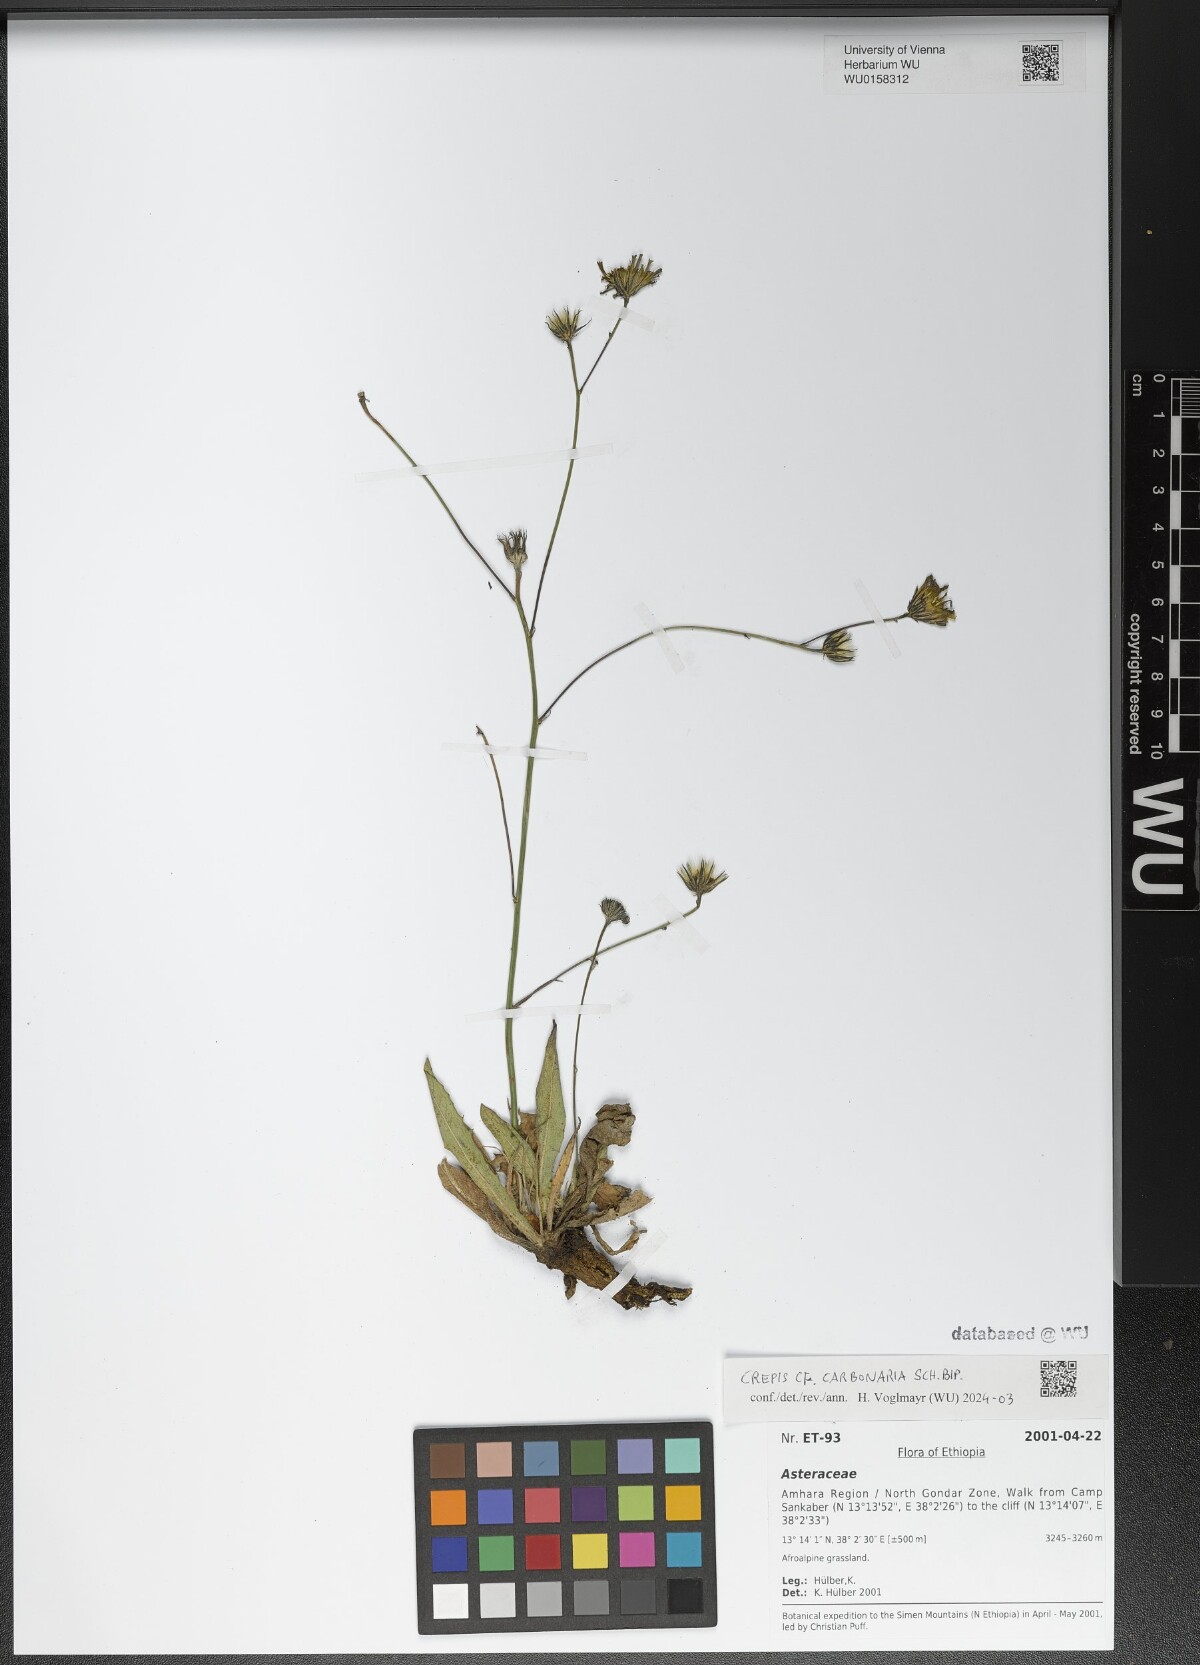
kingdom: Plantae
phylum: Tracheophyta
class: Magnoliopsida
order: Asterales
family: Asteraceae
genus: Crepis
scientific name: Crepis carbonaria
